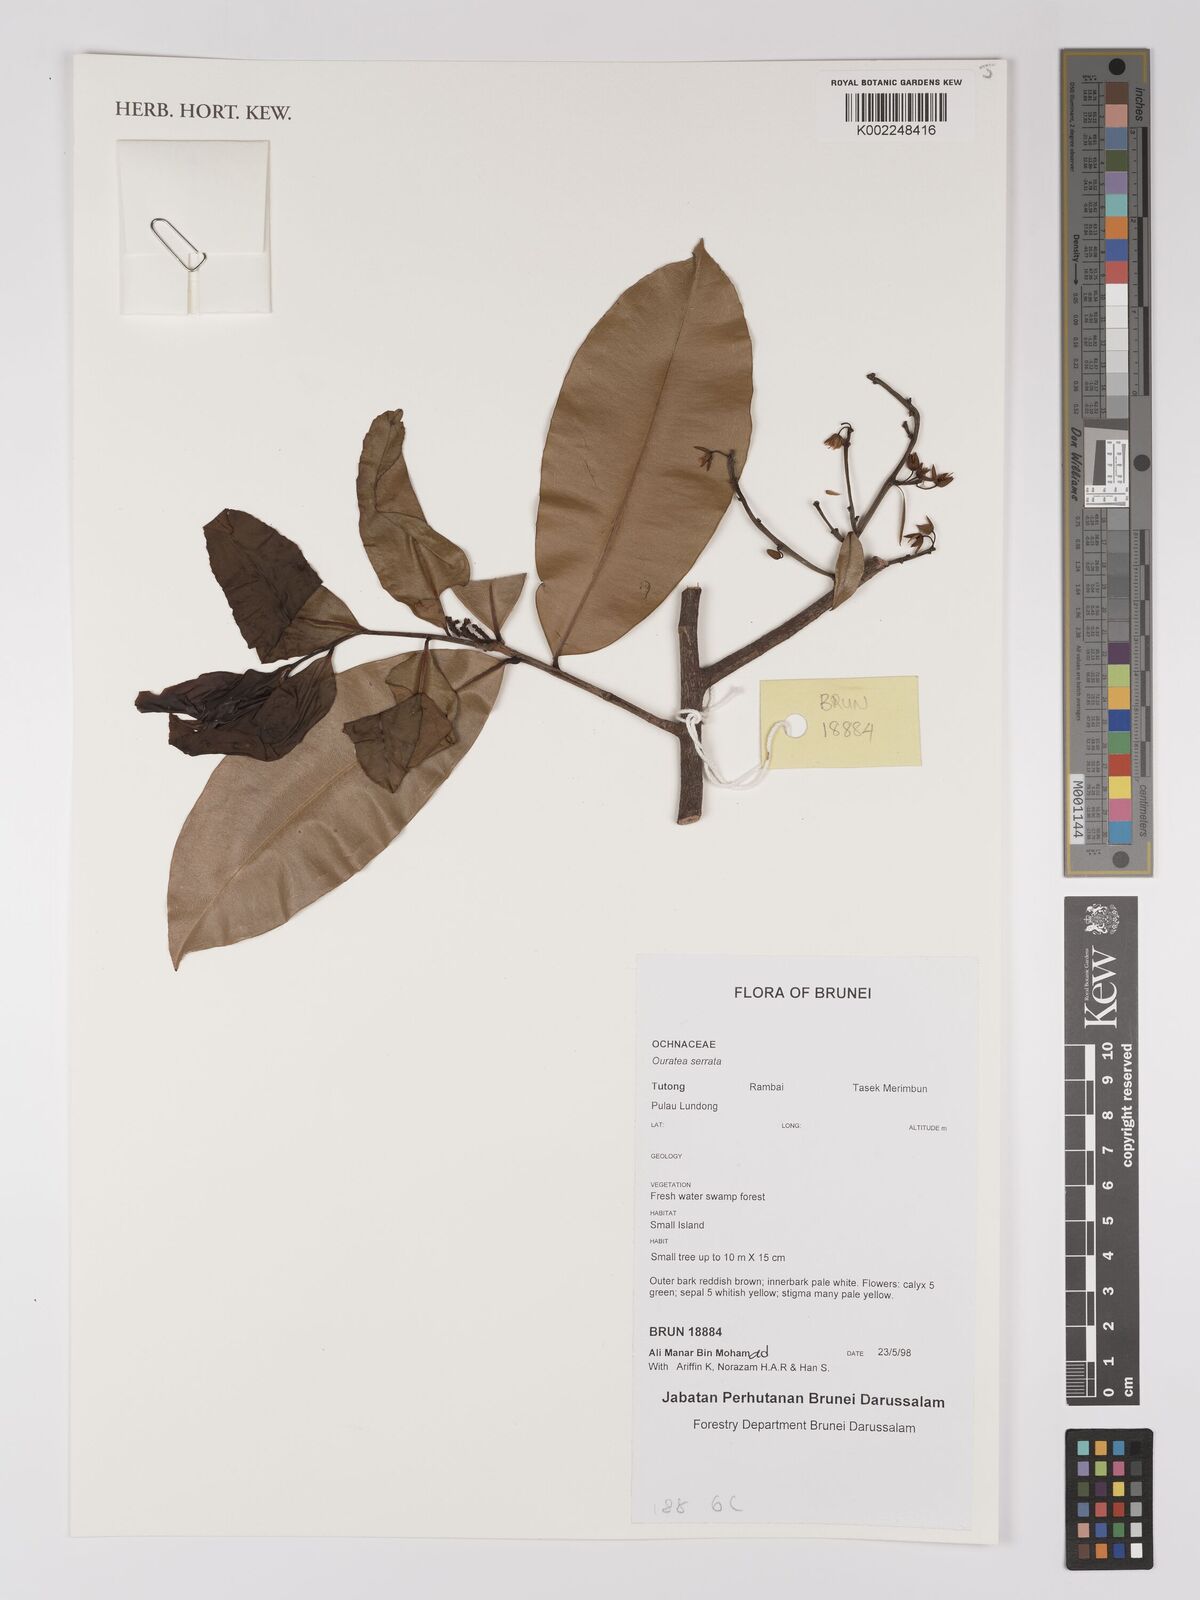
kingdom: Plantae
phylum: Tracheophyta
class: Magnoliopsida
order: Malpighiales
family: Ochnaceae
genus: Gomphia
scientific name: Gomphia serrata
